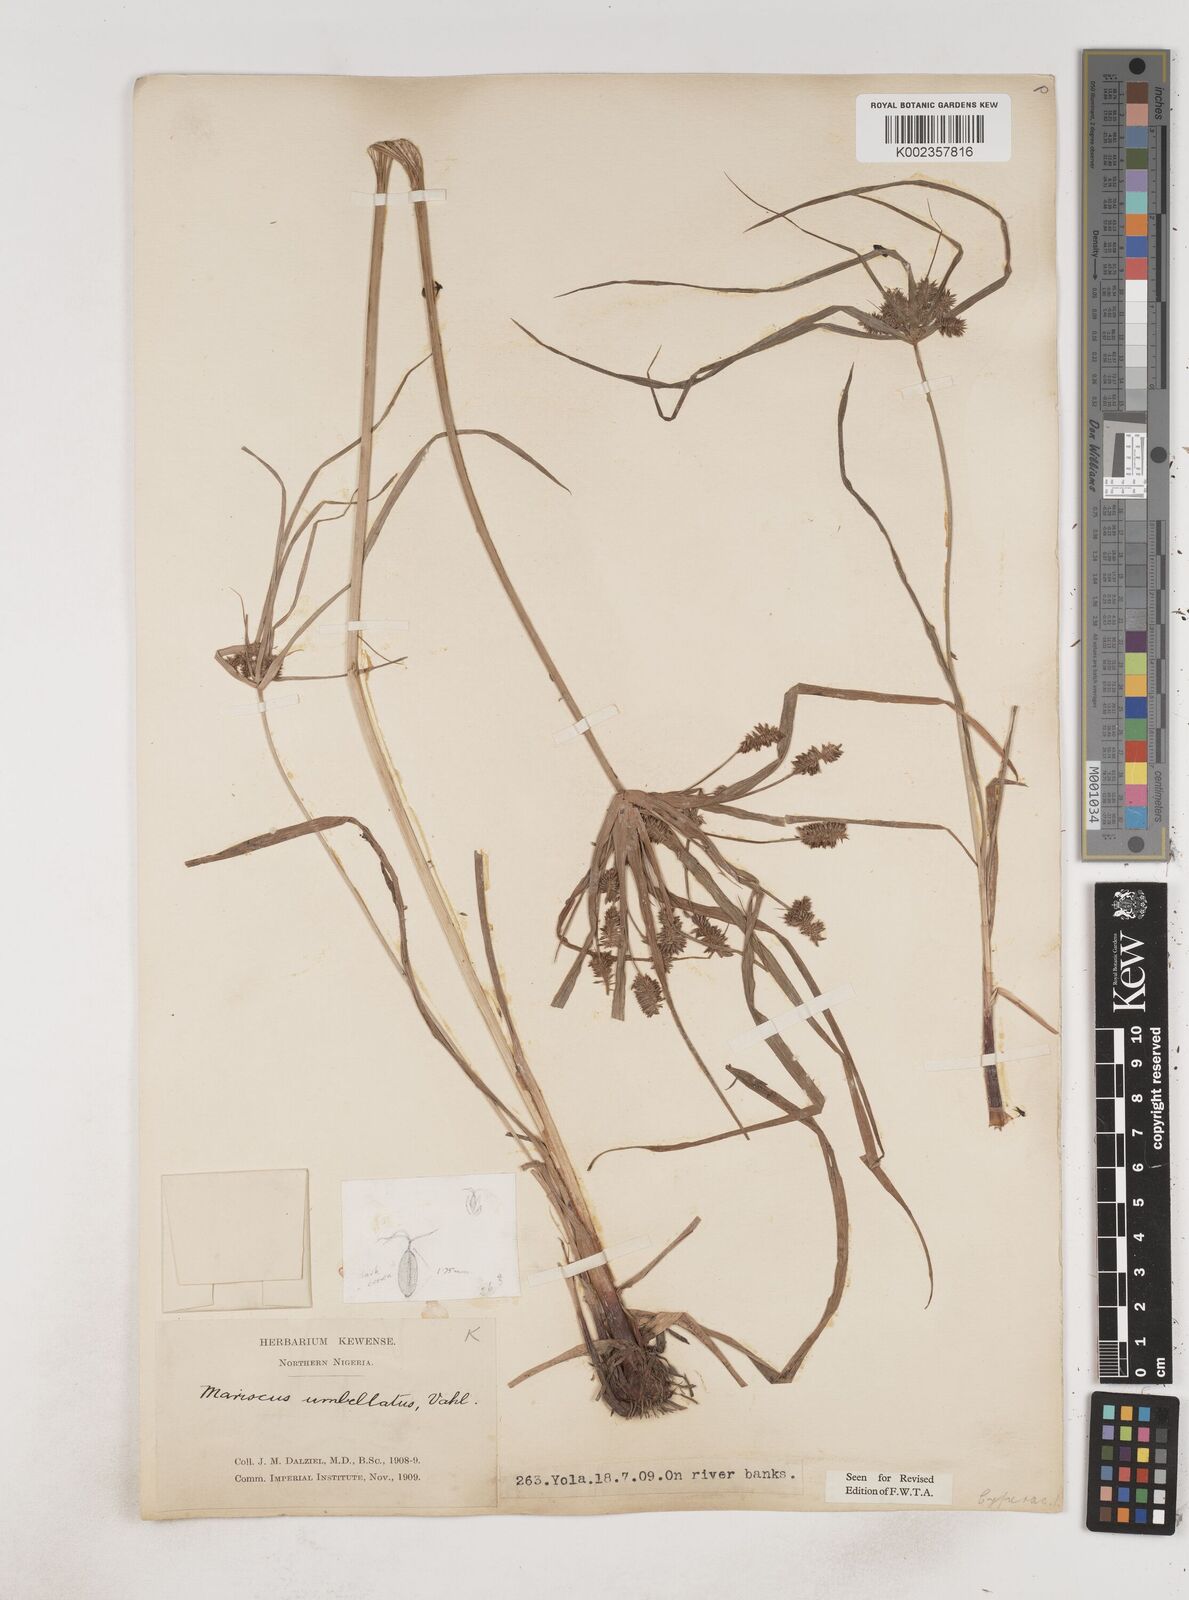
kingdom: Plantae
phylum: Tracheophyta
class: Liliopsida
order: Poales
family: Cyperaceae
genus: Cyperus
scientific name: Cyperus sublimis
